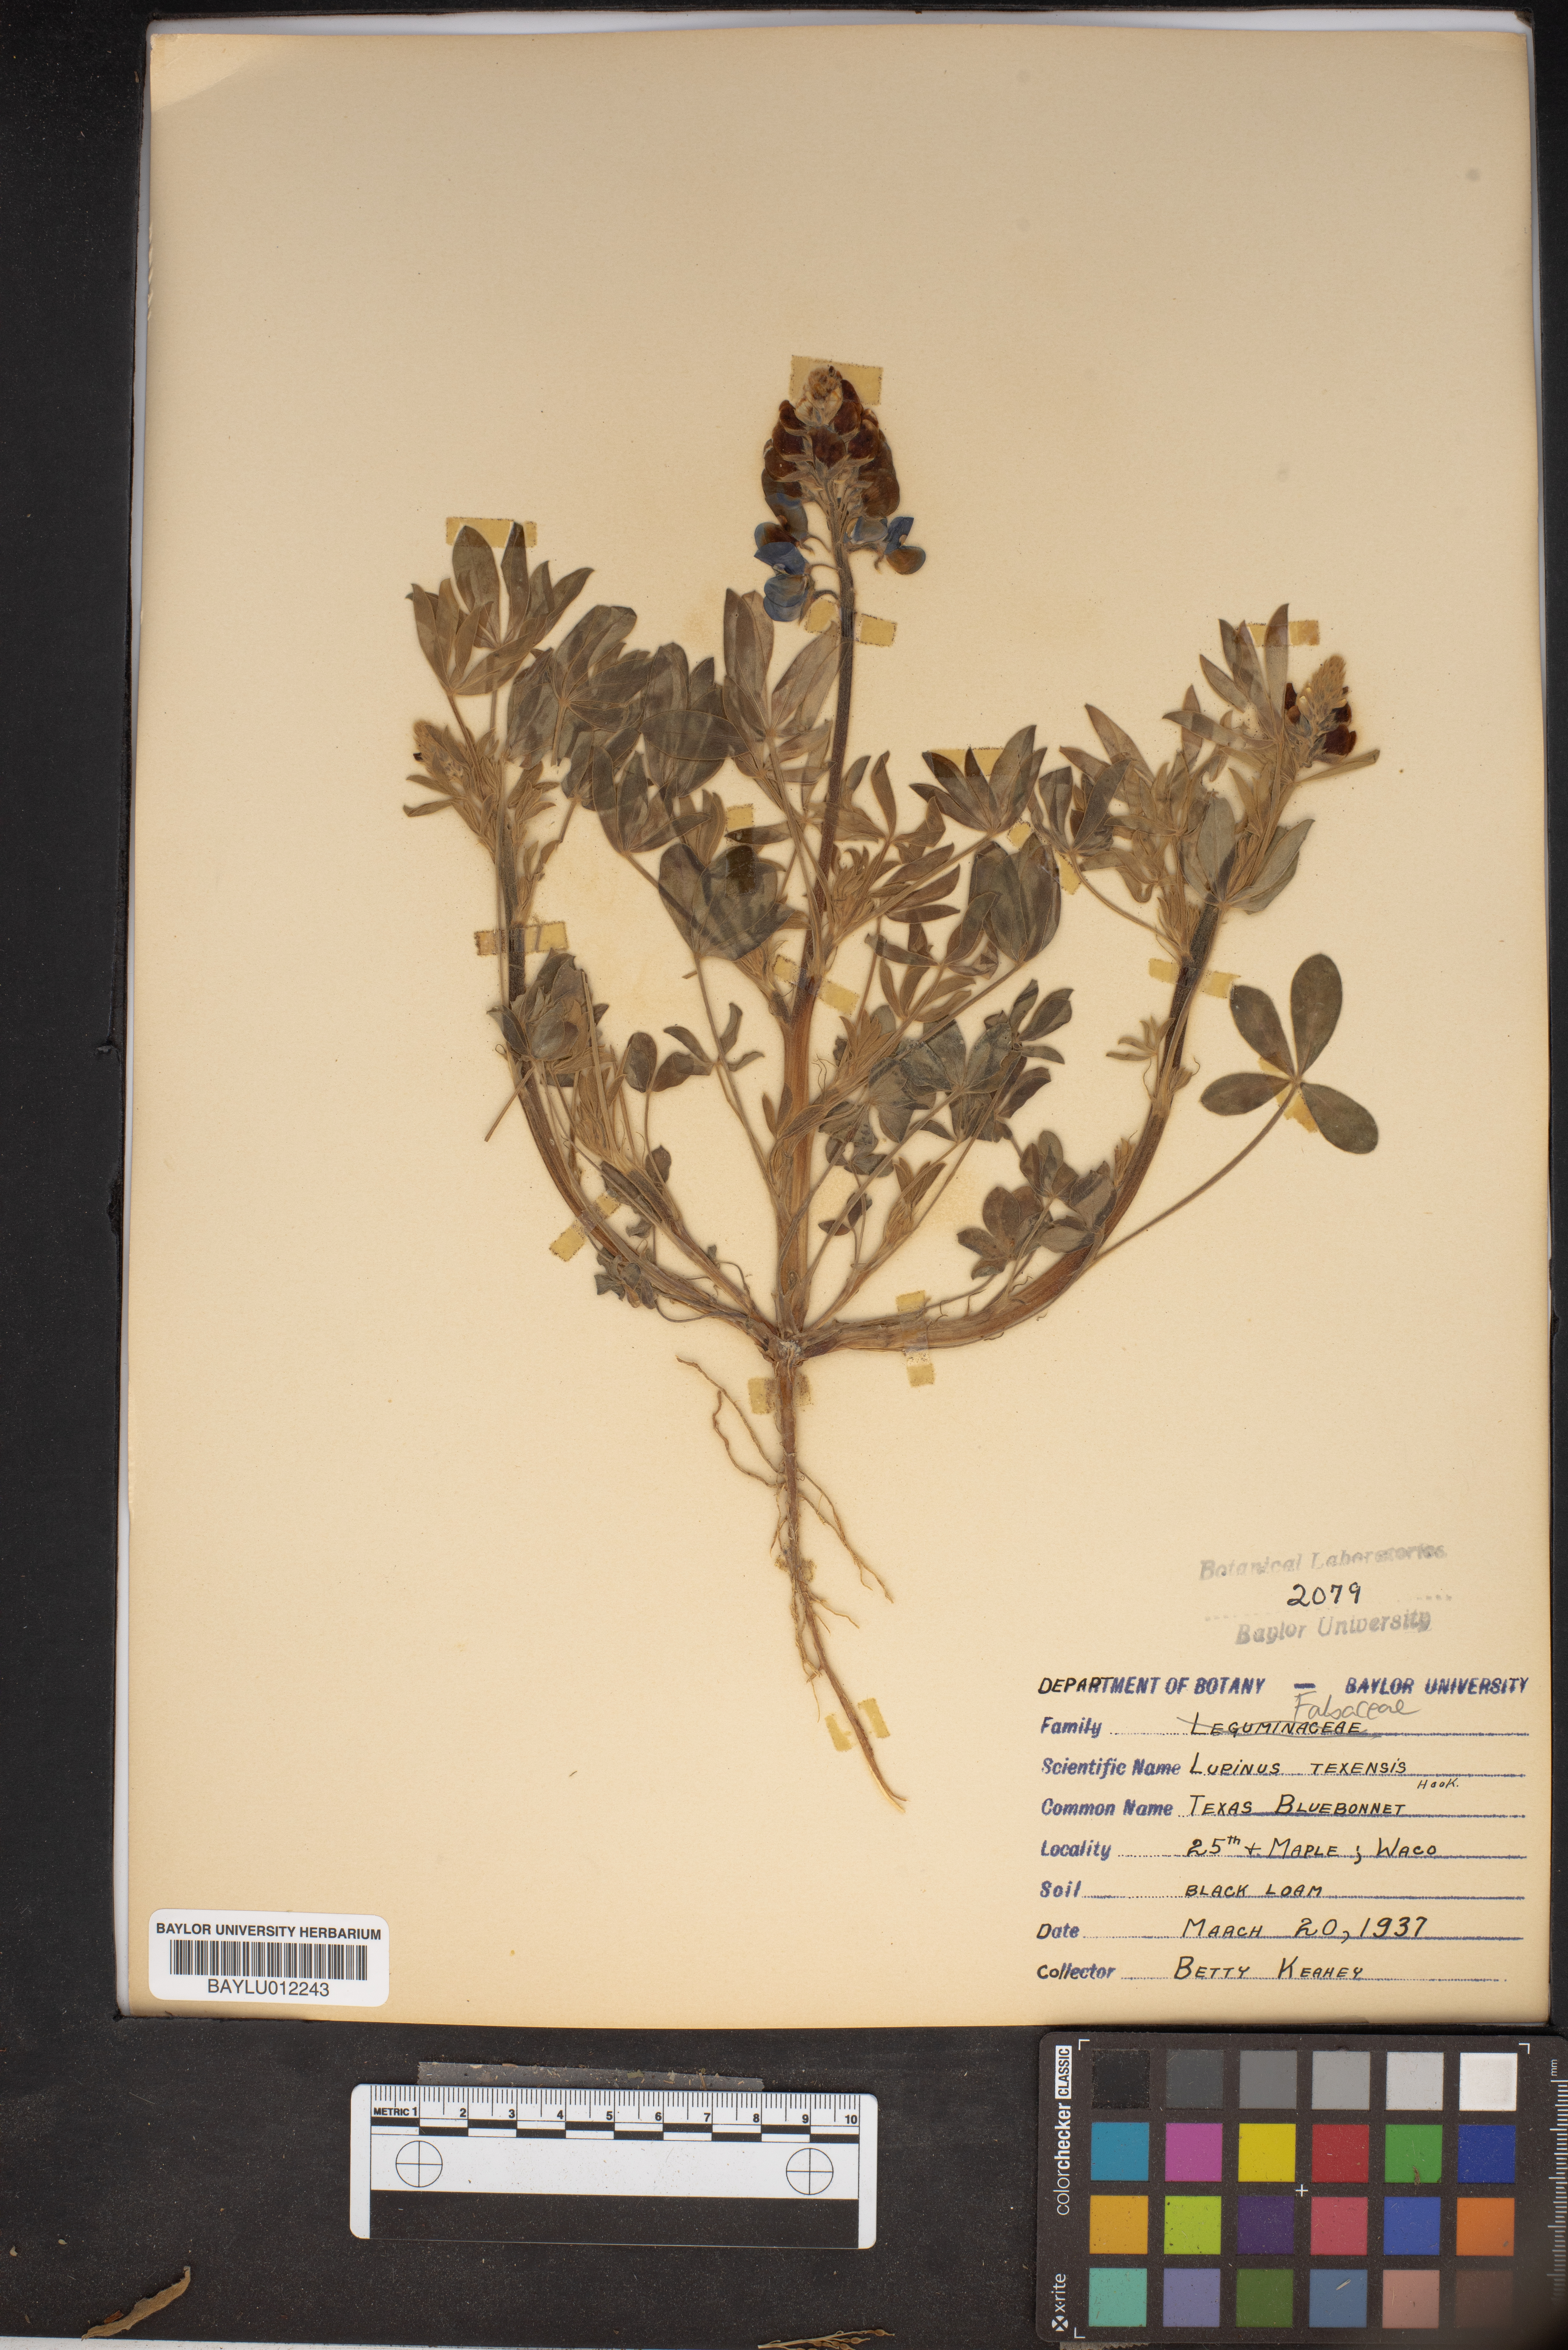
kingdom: Plantae
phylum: Tracheophyta
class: Magnoliopsida
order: Fabales
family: Fabaceae
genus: Lupinus
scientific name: Lupinus texensis
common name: Texas bluebonnet
